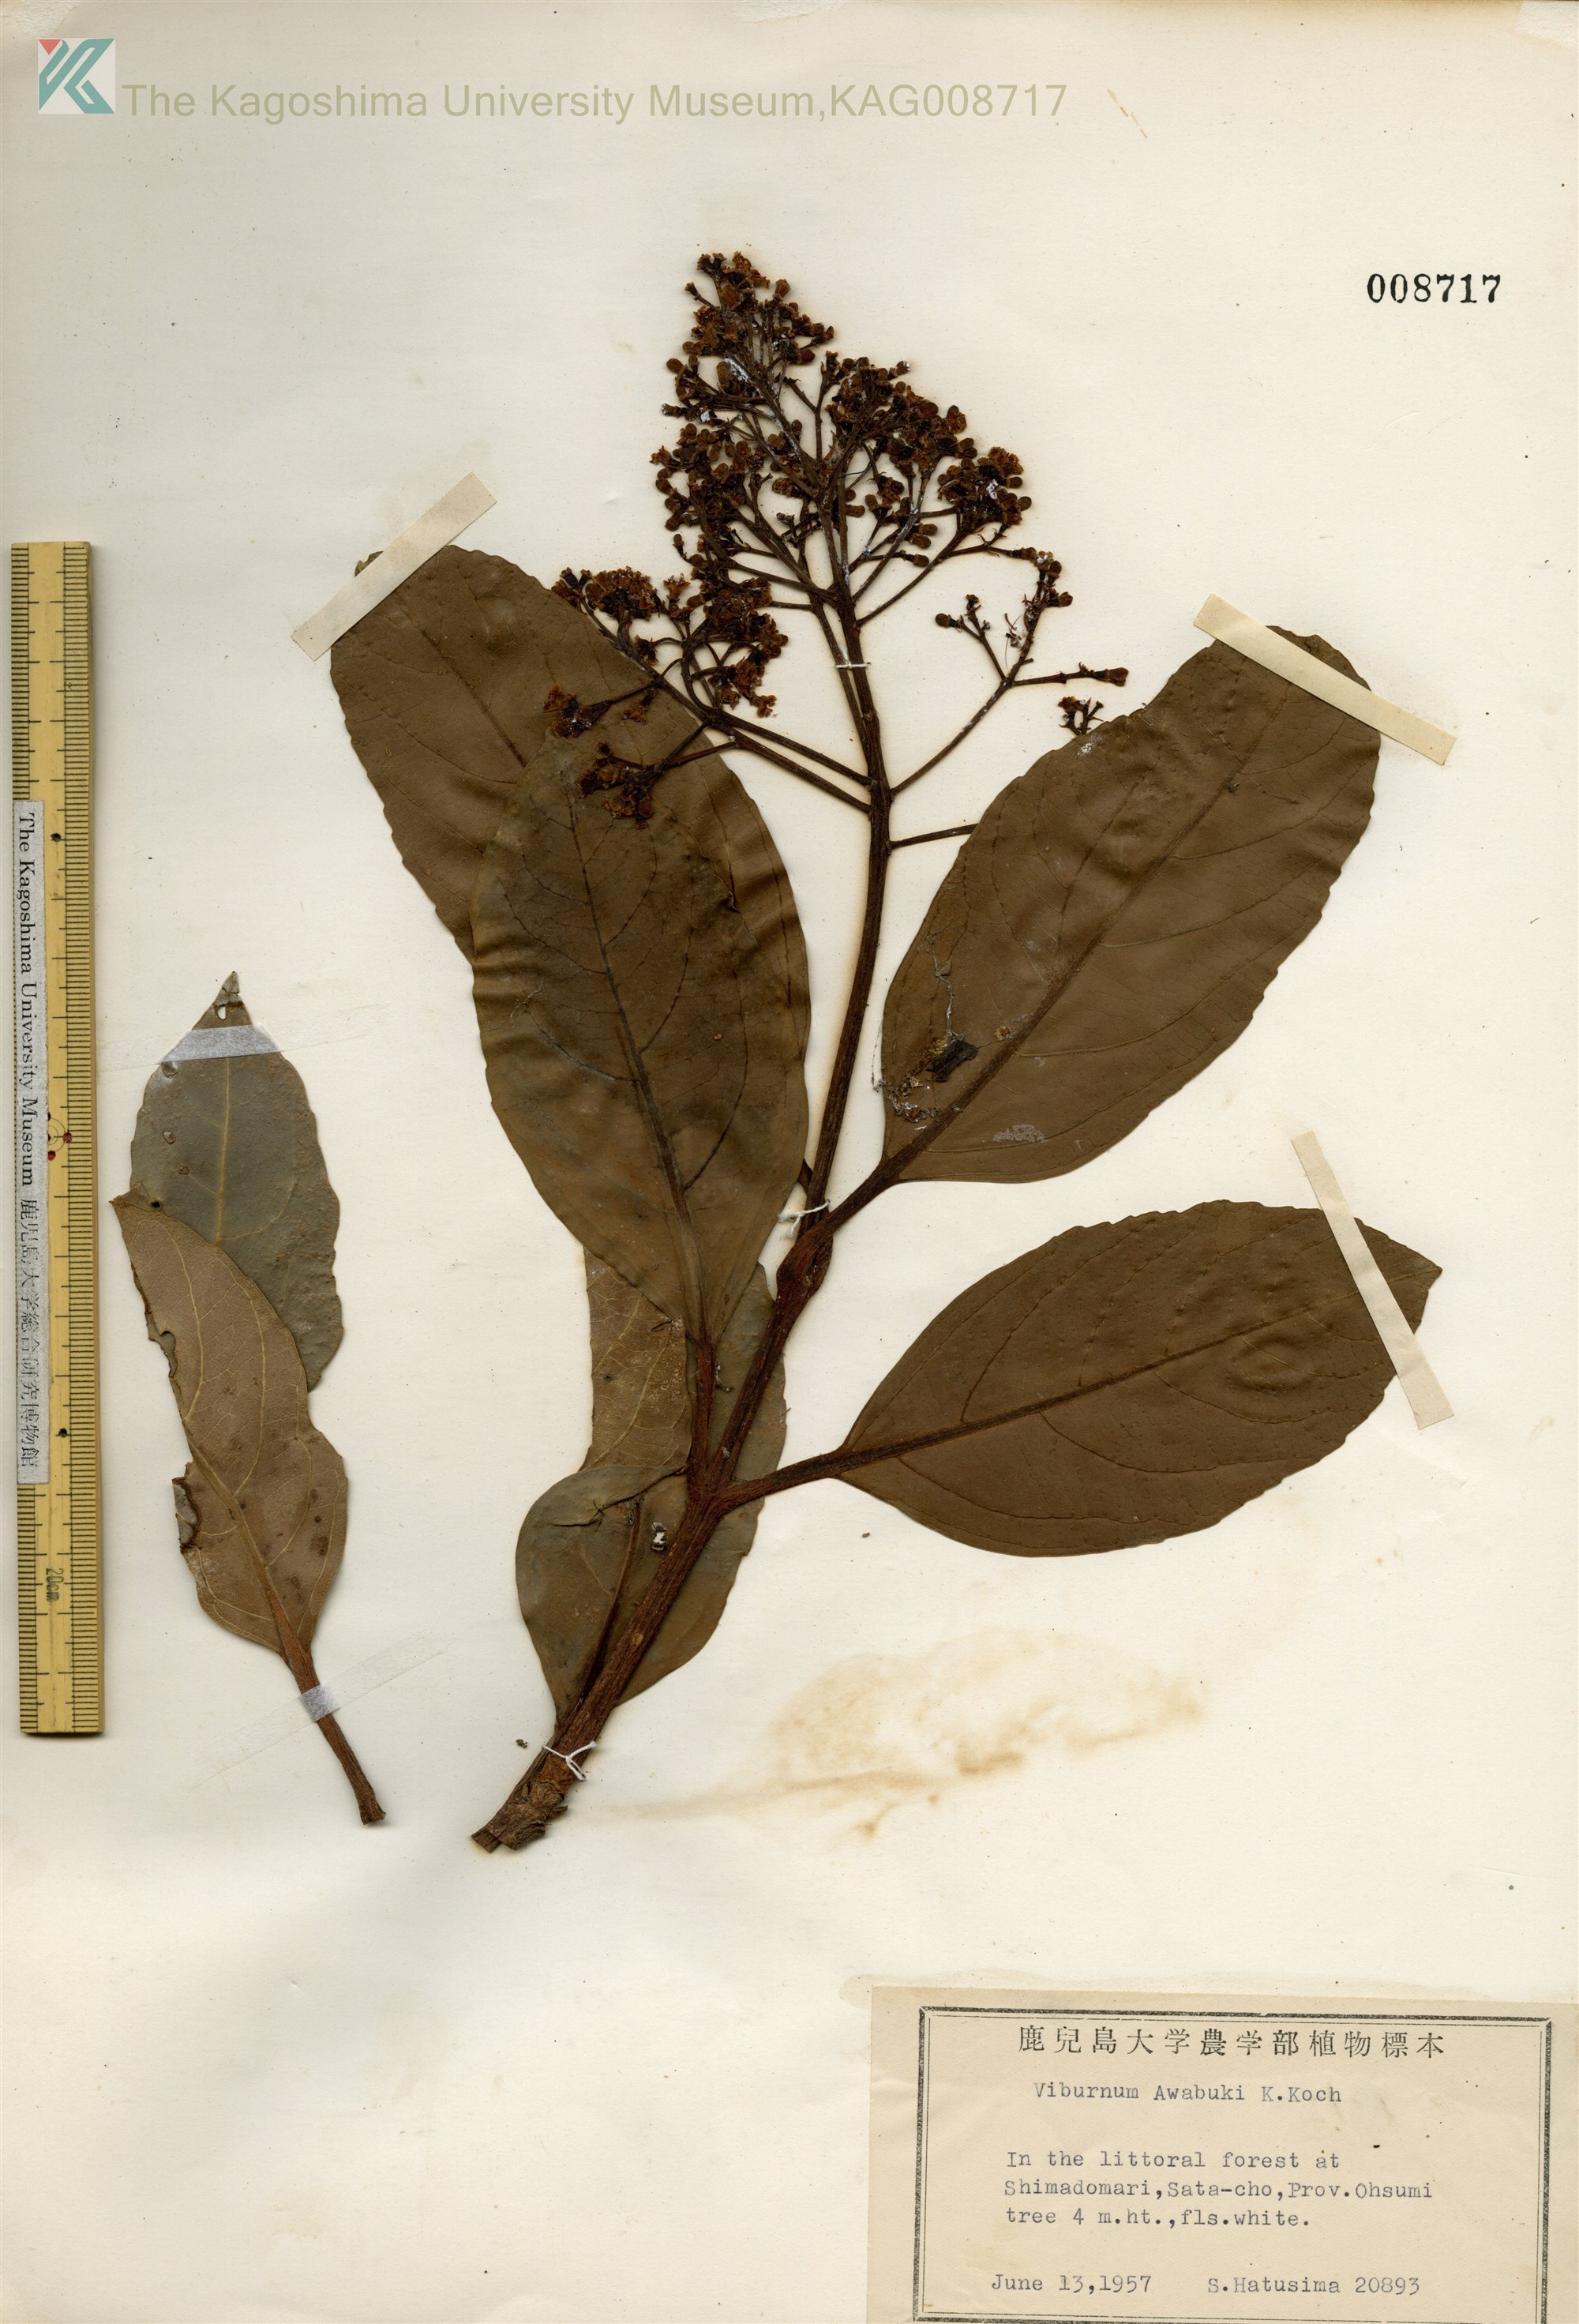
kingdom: Plantae
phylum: Tracheophyta
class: Magnoliopsida
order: Dipsacales
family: Viburnaceae
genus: Viburnum
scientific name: Viburnum odoratissimum
